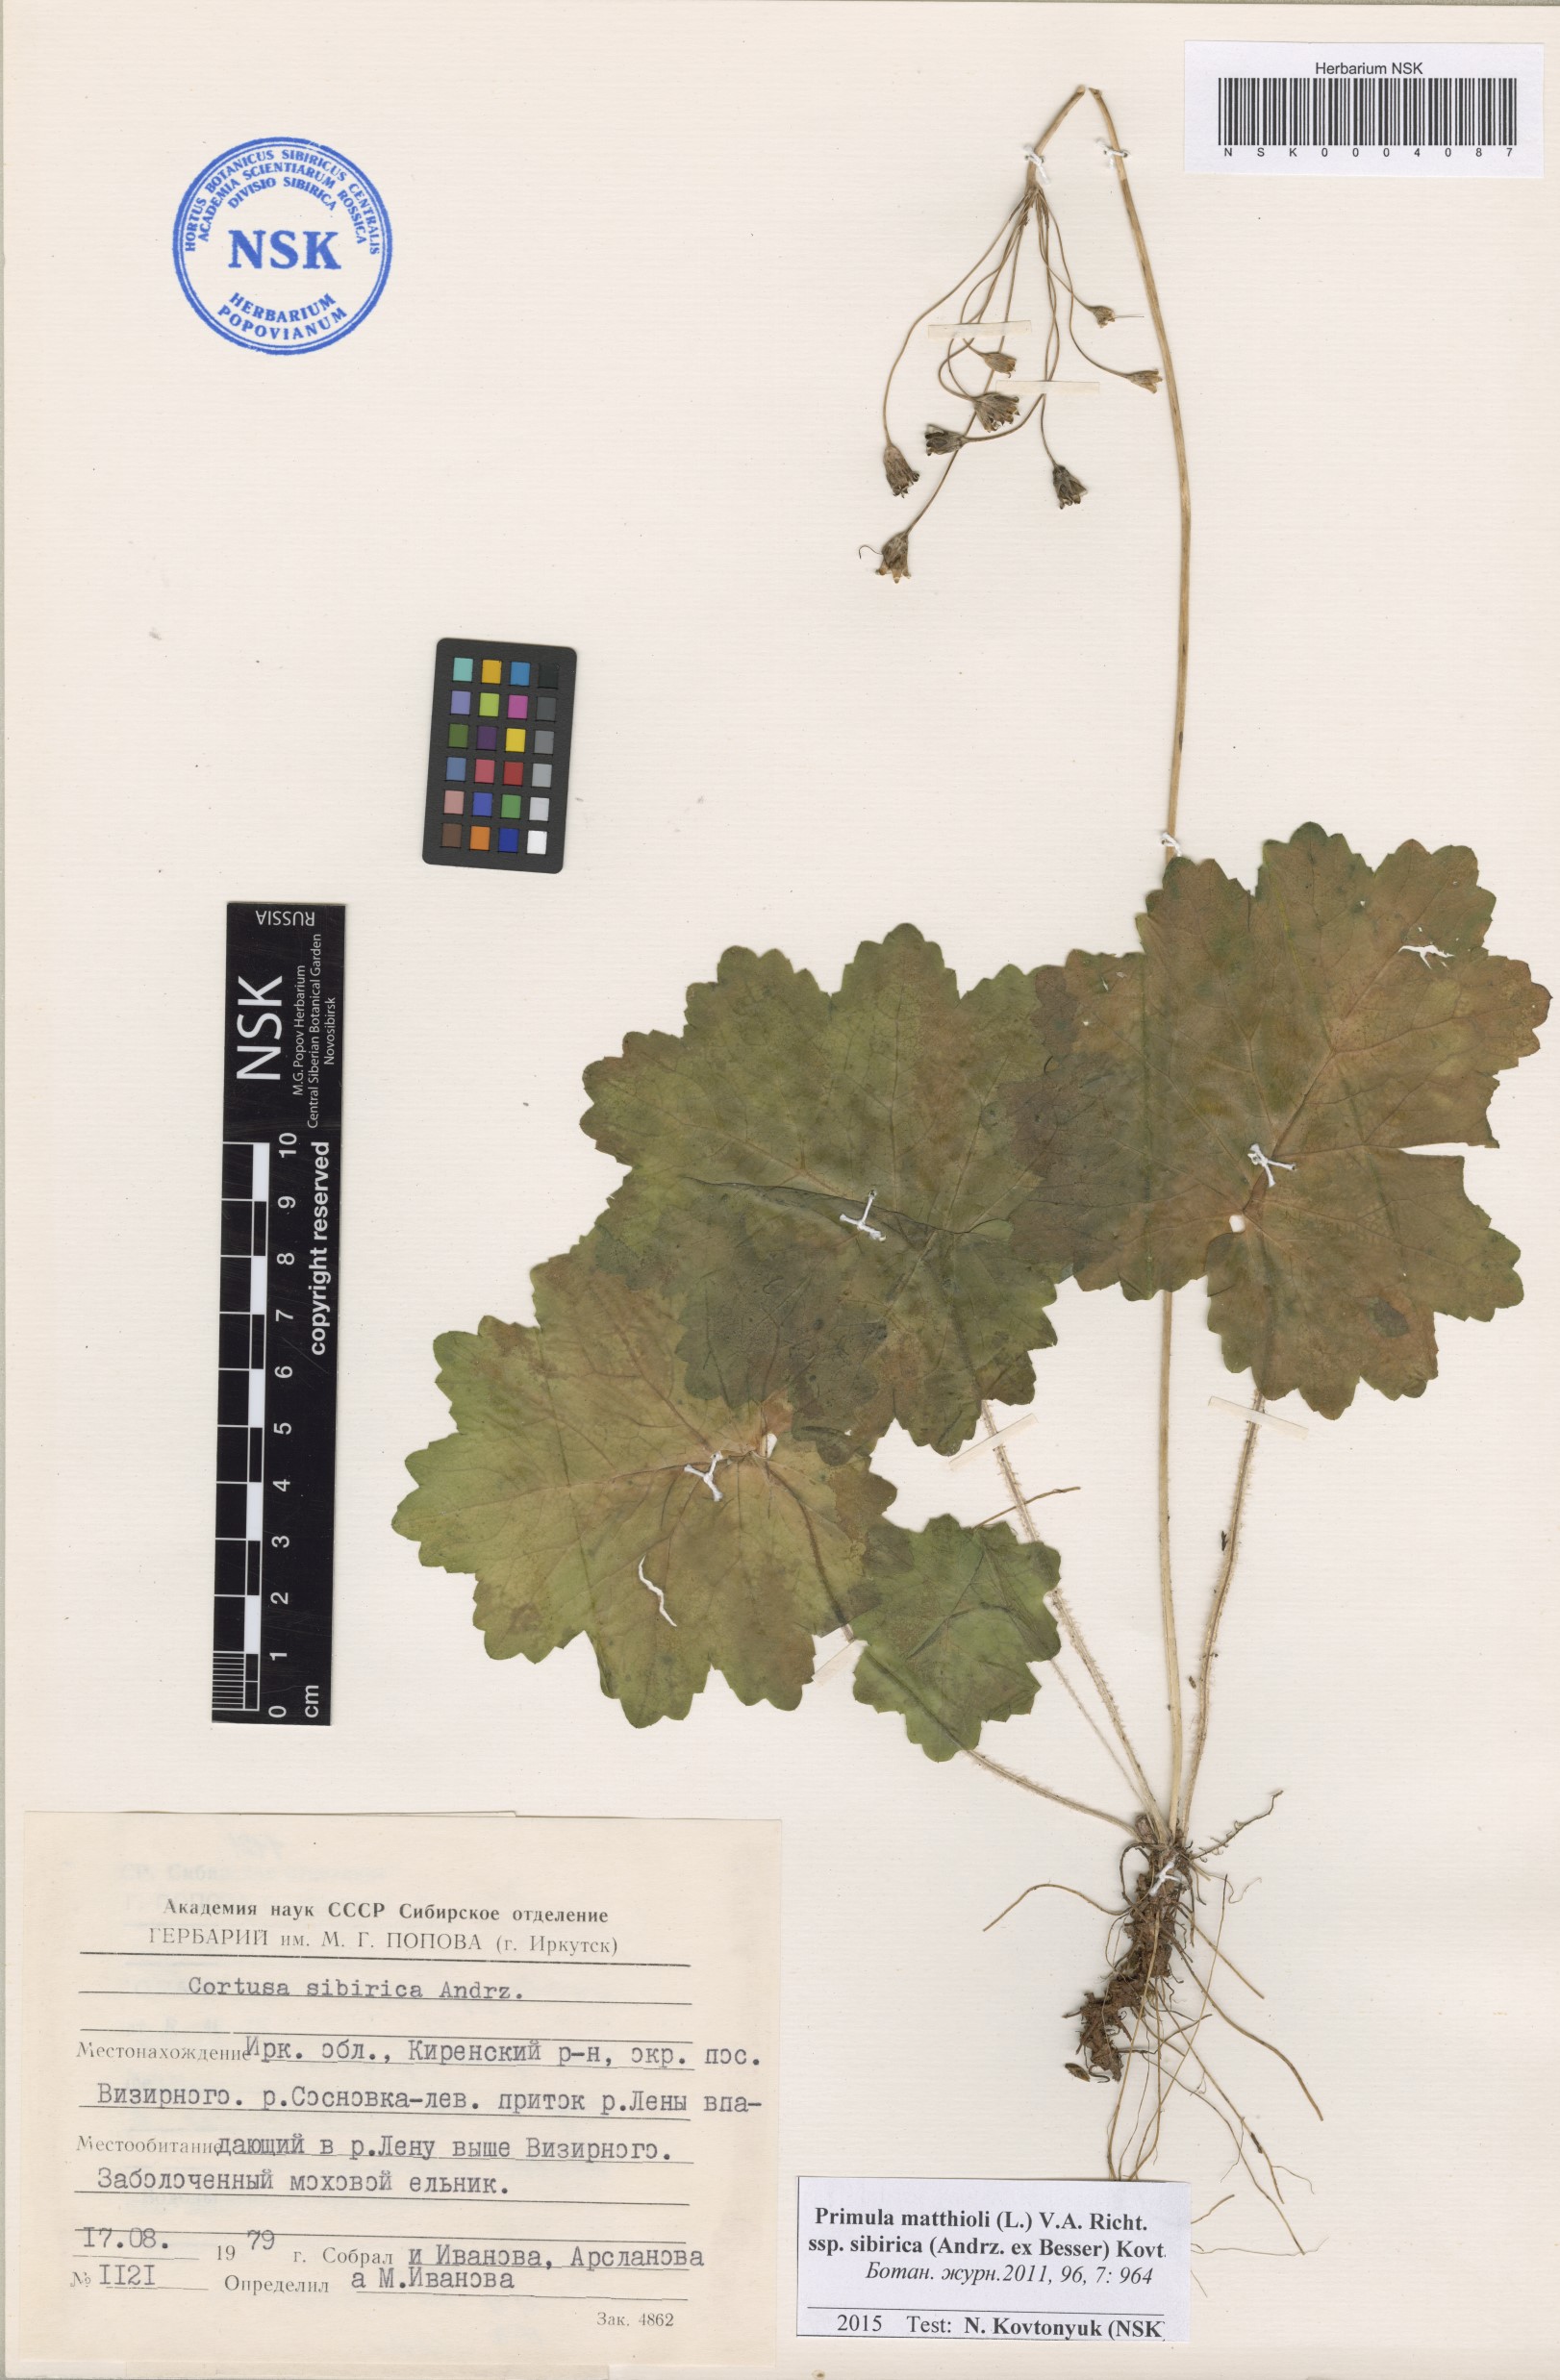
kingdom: Plantae
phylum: Tracheophyta
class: Magnoliopsida
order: Ericales
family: Primulaceae
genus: Primula
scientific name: Primula matthioli
